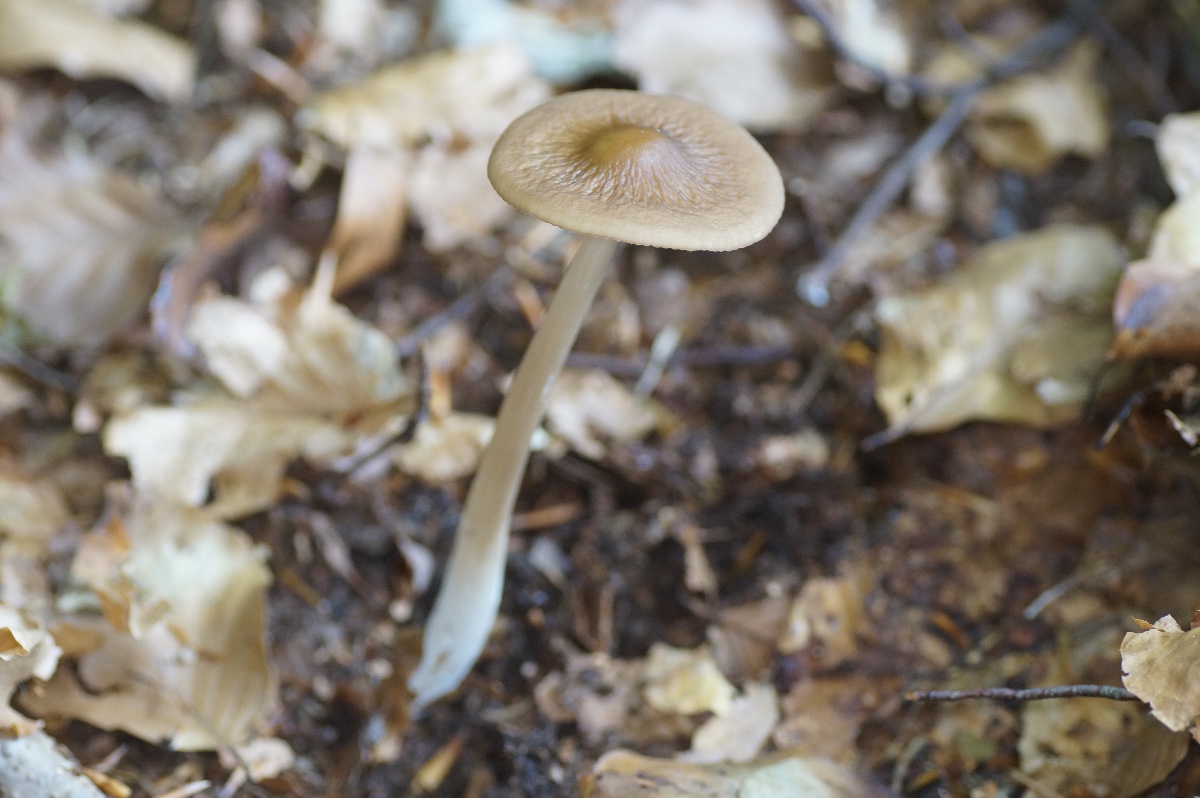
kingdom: Fungi
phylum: Basidiomycota
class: Agaricomycetes
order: Agaricales
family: Physalacriaceae
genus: Hymenopellis
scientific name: Hymenopellis radicata
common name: almindelig pælerodshat
